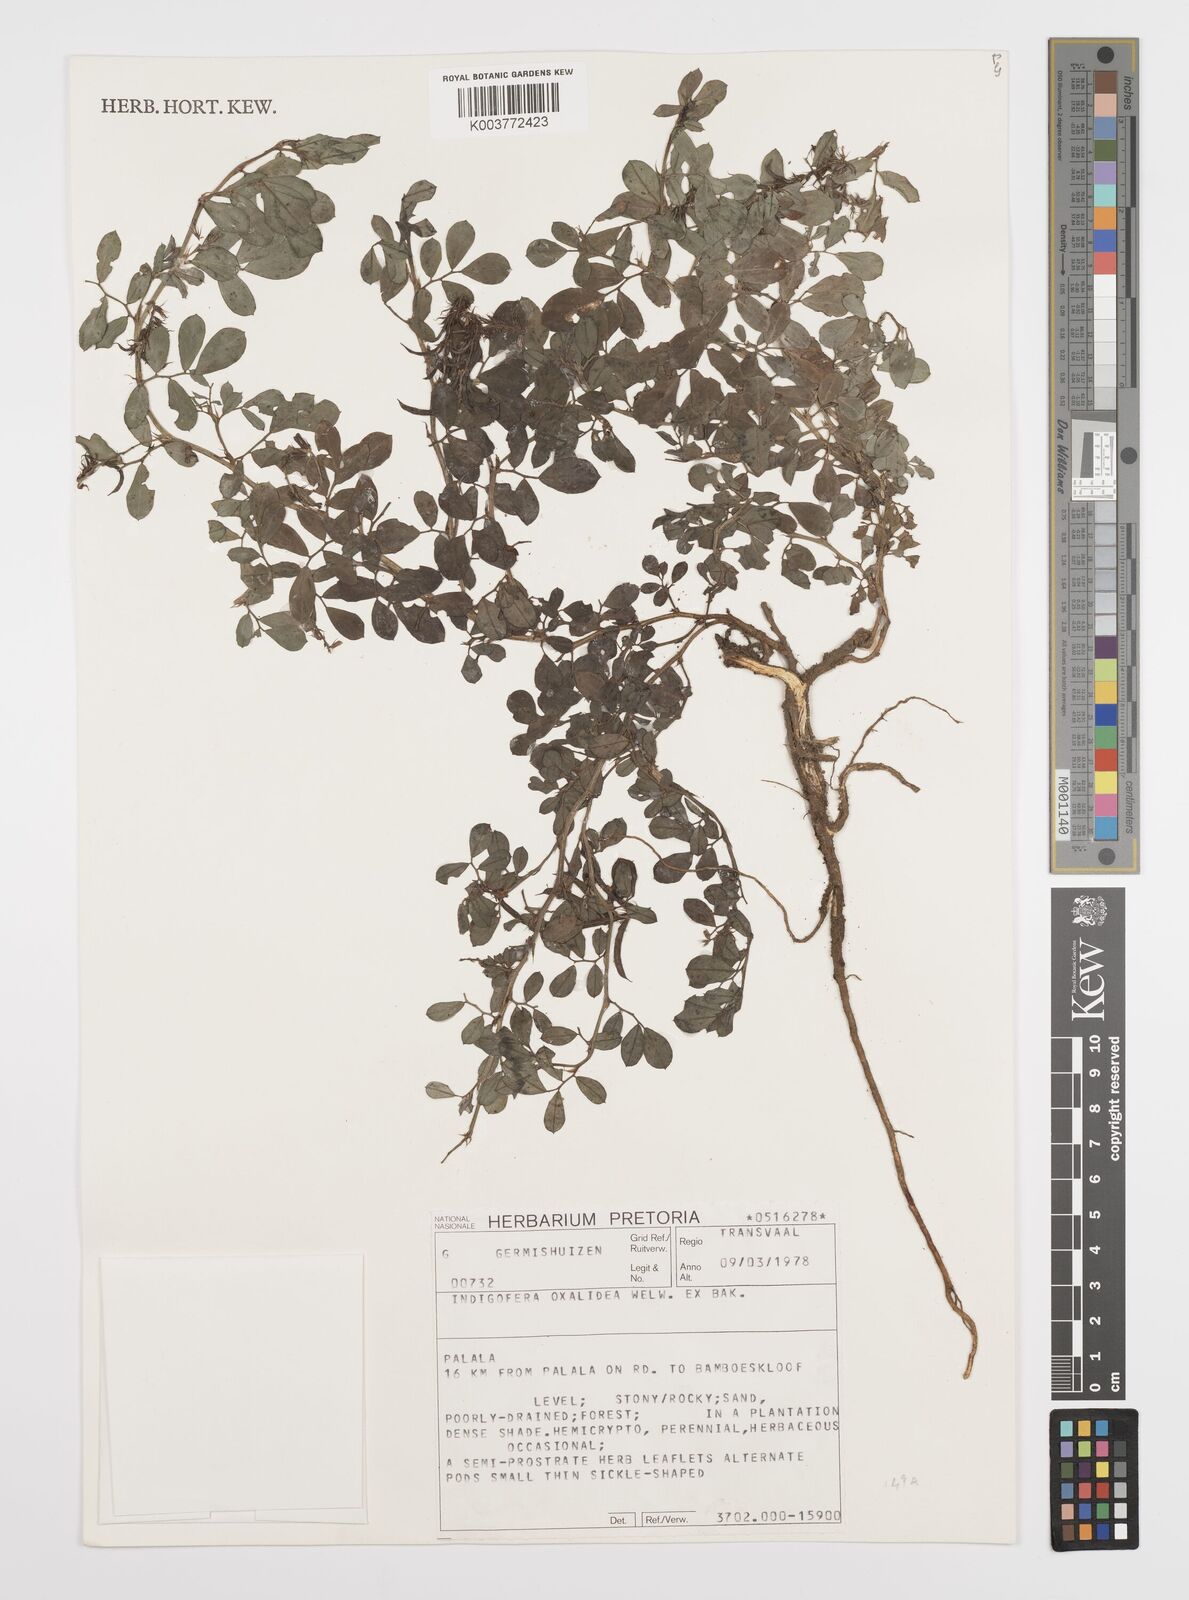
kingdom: Plantae
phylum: Tracheophyta
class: Magnoliopsida
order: Fabales
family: Fabaceae
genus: Indigofera
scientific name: Indigofera oxalidea
